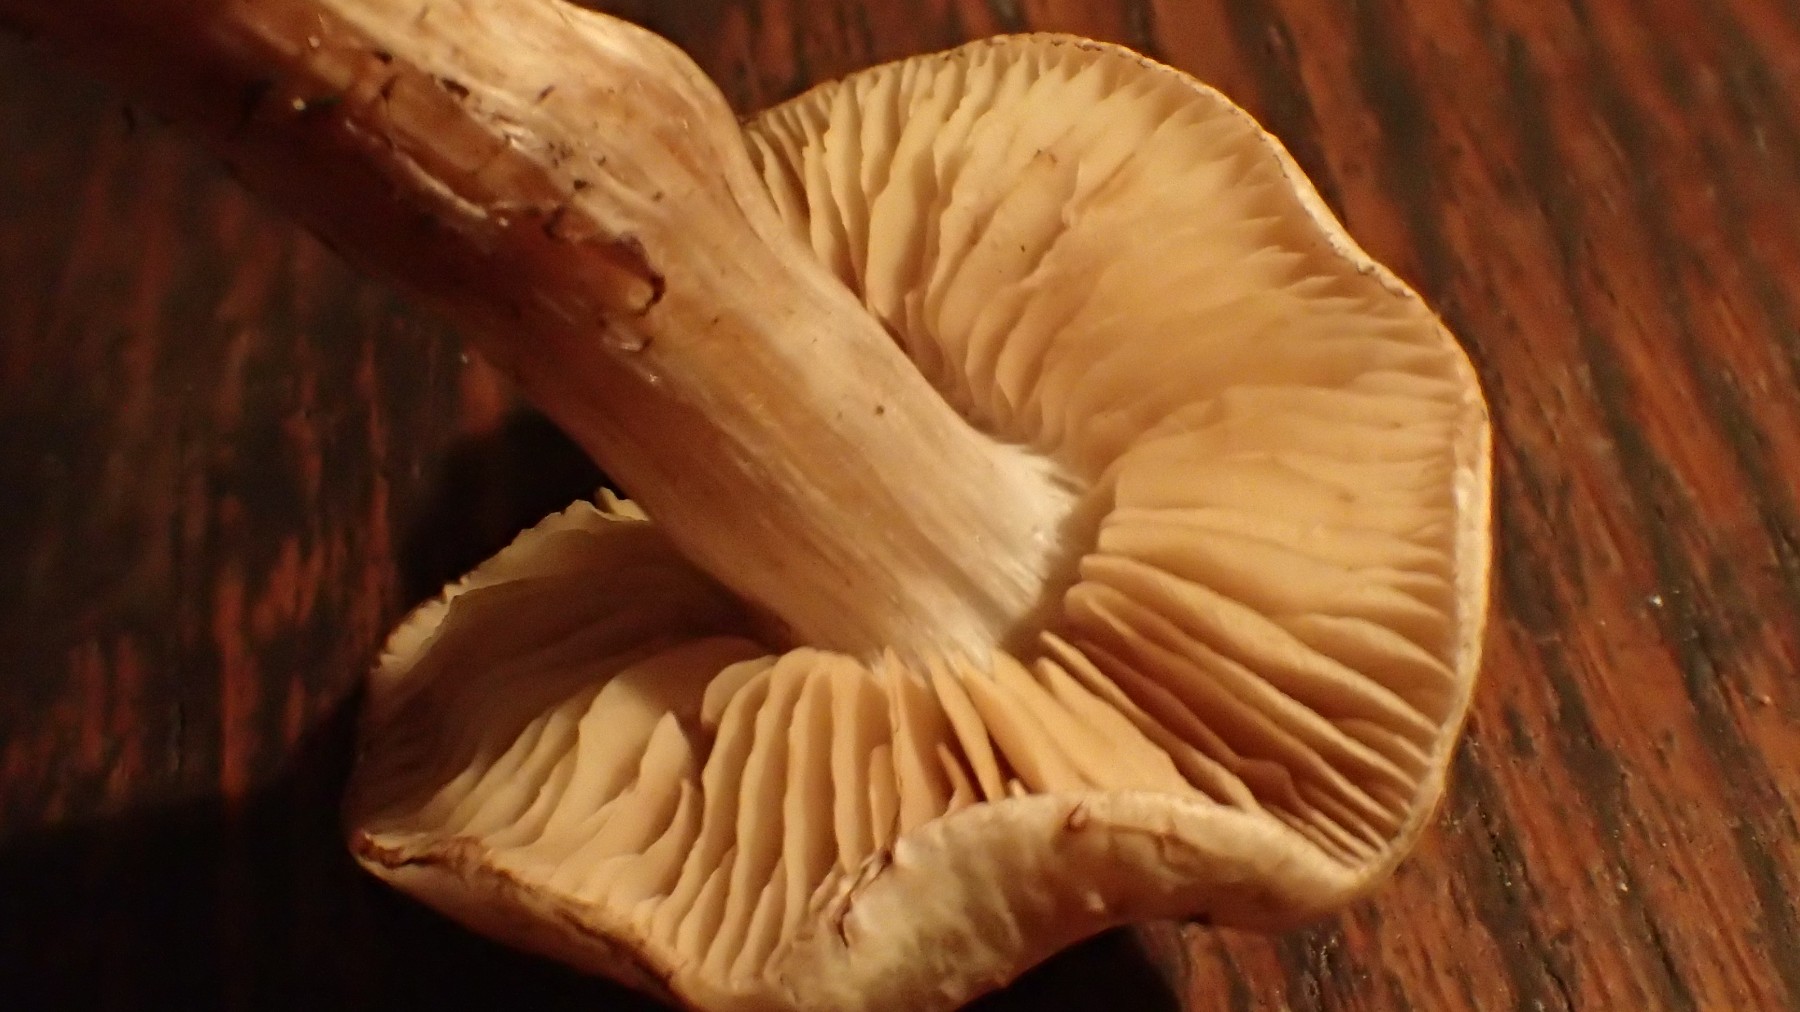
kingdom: Fungi
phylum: Basidiomycota
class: Agaricomycetes
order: Agaricales
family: Strophariaceae
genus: Pholiota
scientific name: Pholiota gummosa
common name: grøngul skælhat
